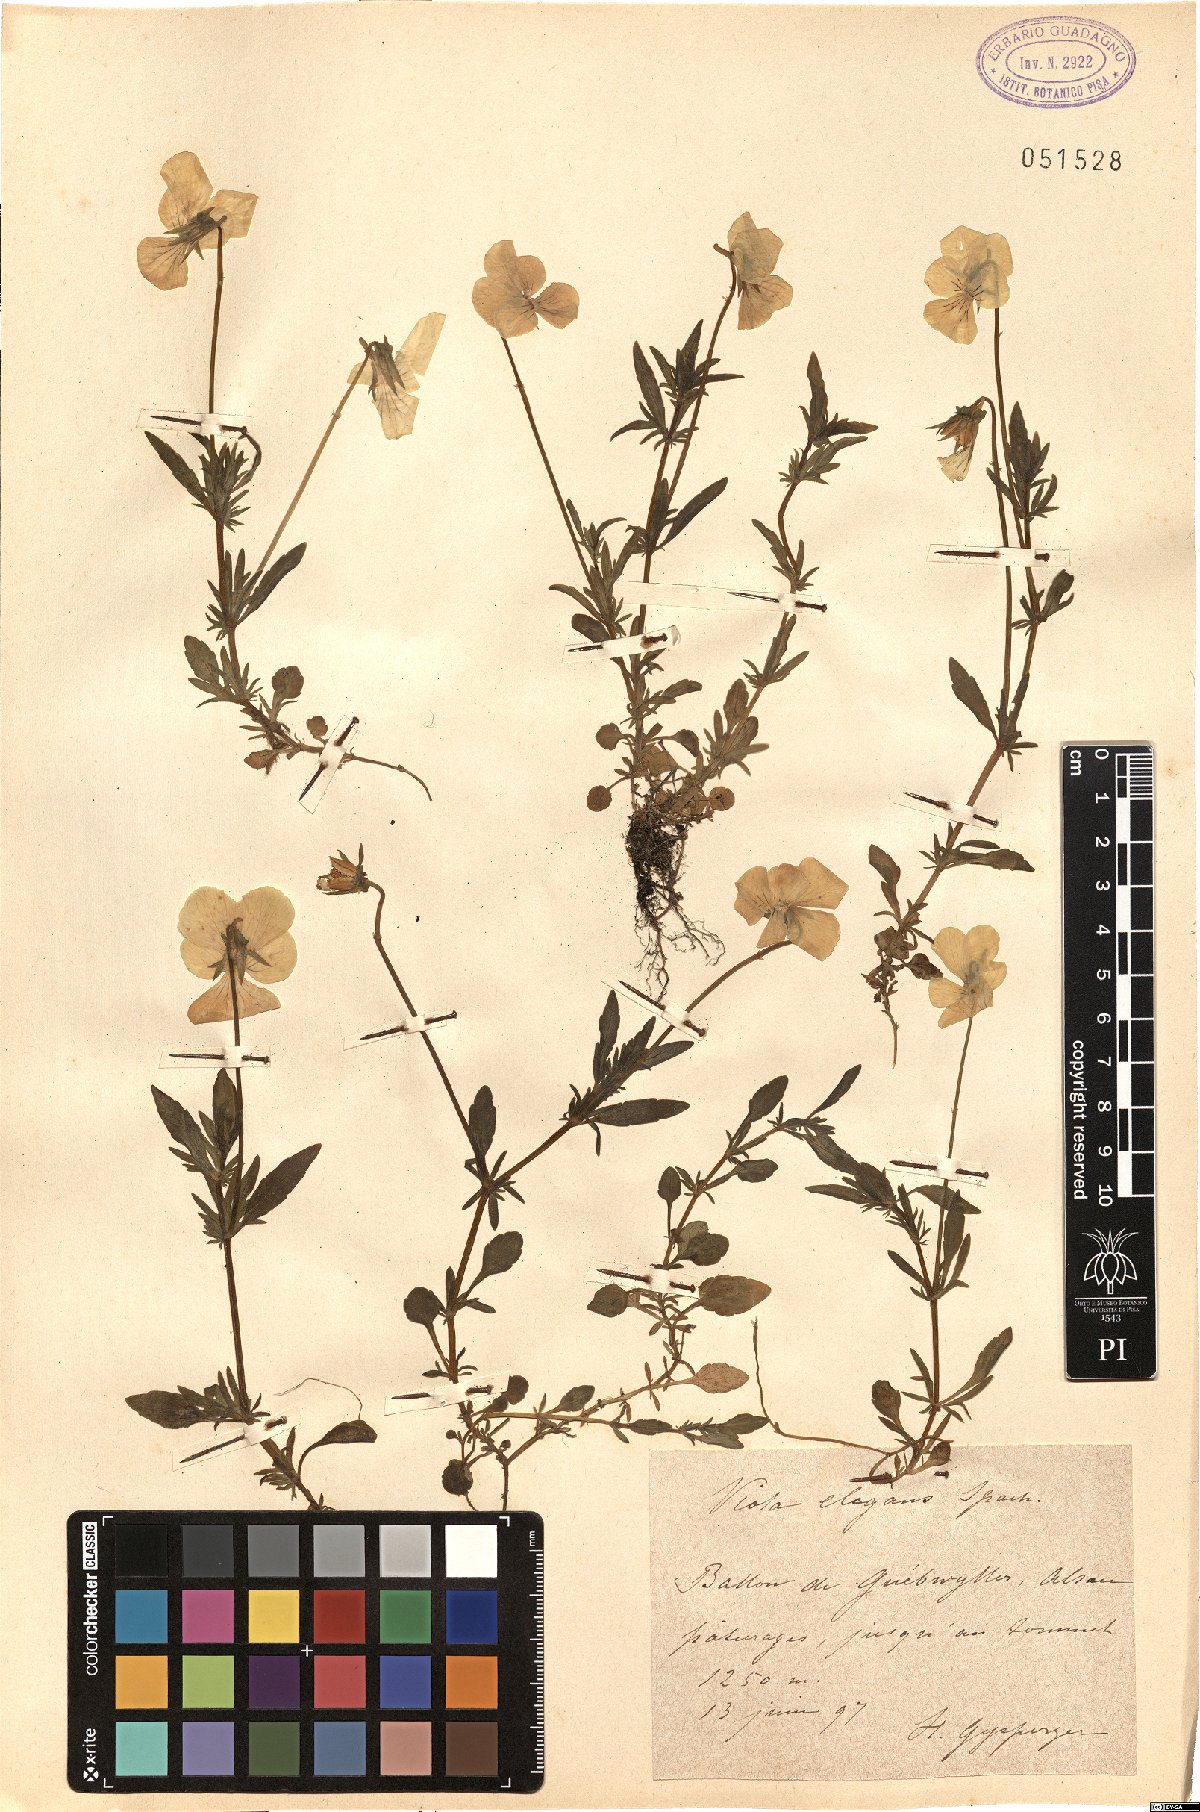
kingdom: Plantae
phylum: Tracheophyta
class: Magnoliopsida
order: Malpighiales
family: Violaceae
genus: Viola
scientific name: Viola lutea
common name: Mountain pansy
